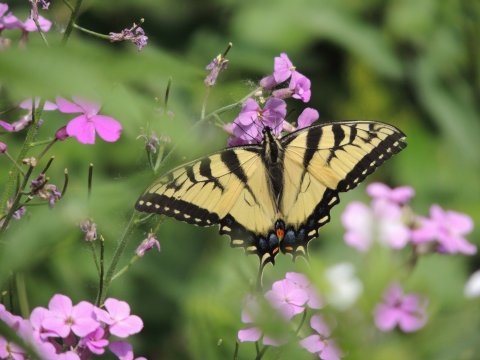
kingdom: Animalia
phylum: Arthropoda
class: Insecta
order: Lepidoptera
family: Papilionidae
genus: Pterourus
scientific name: Pterourus glaucus
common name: Eastern Tiger Swallowtail
